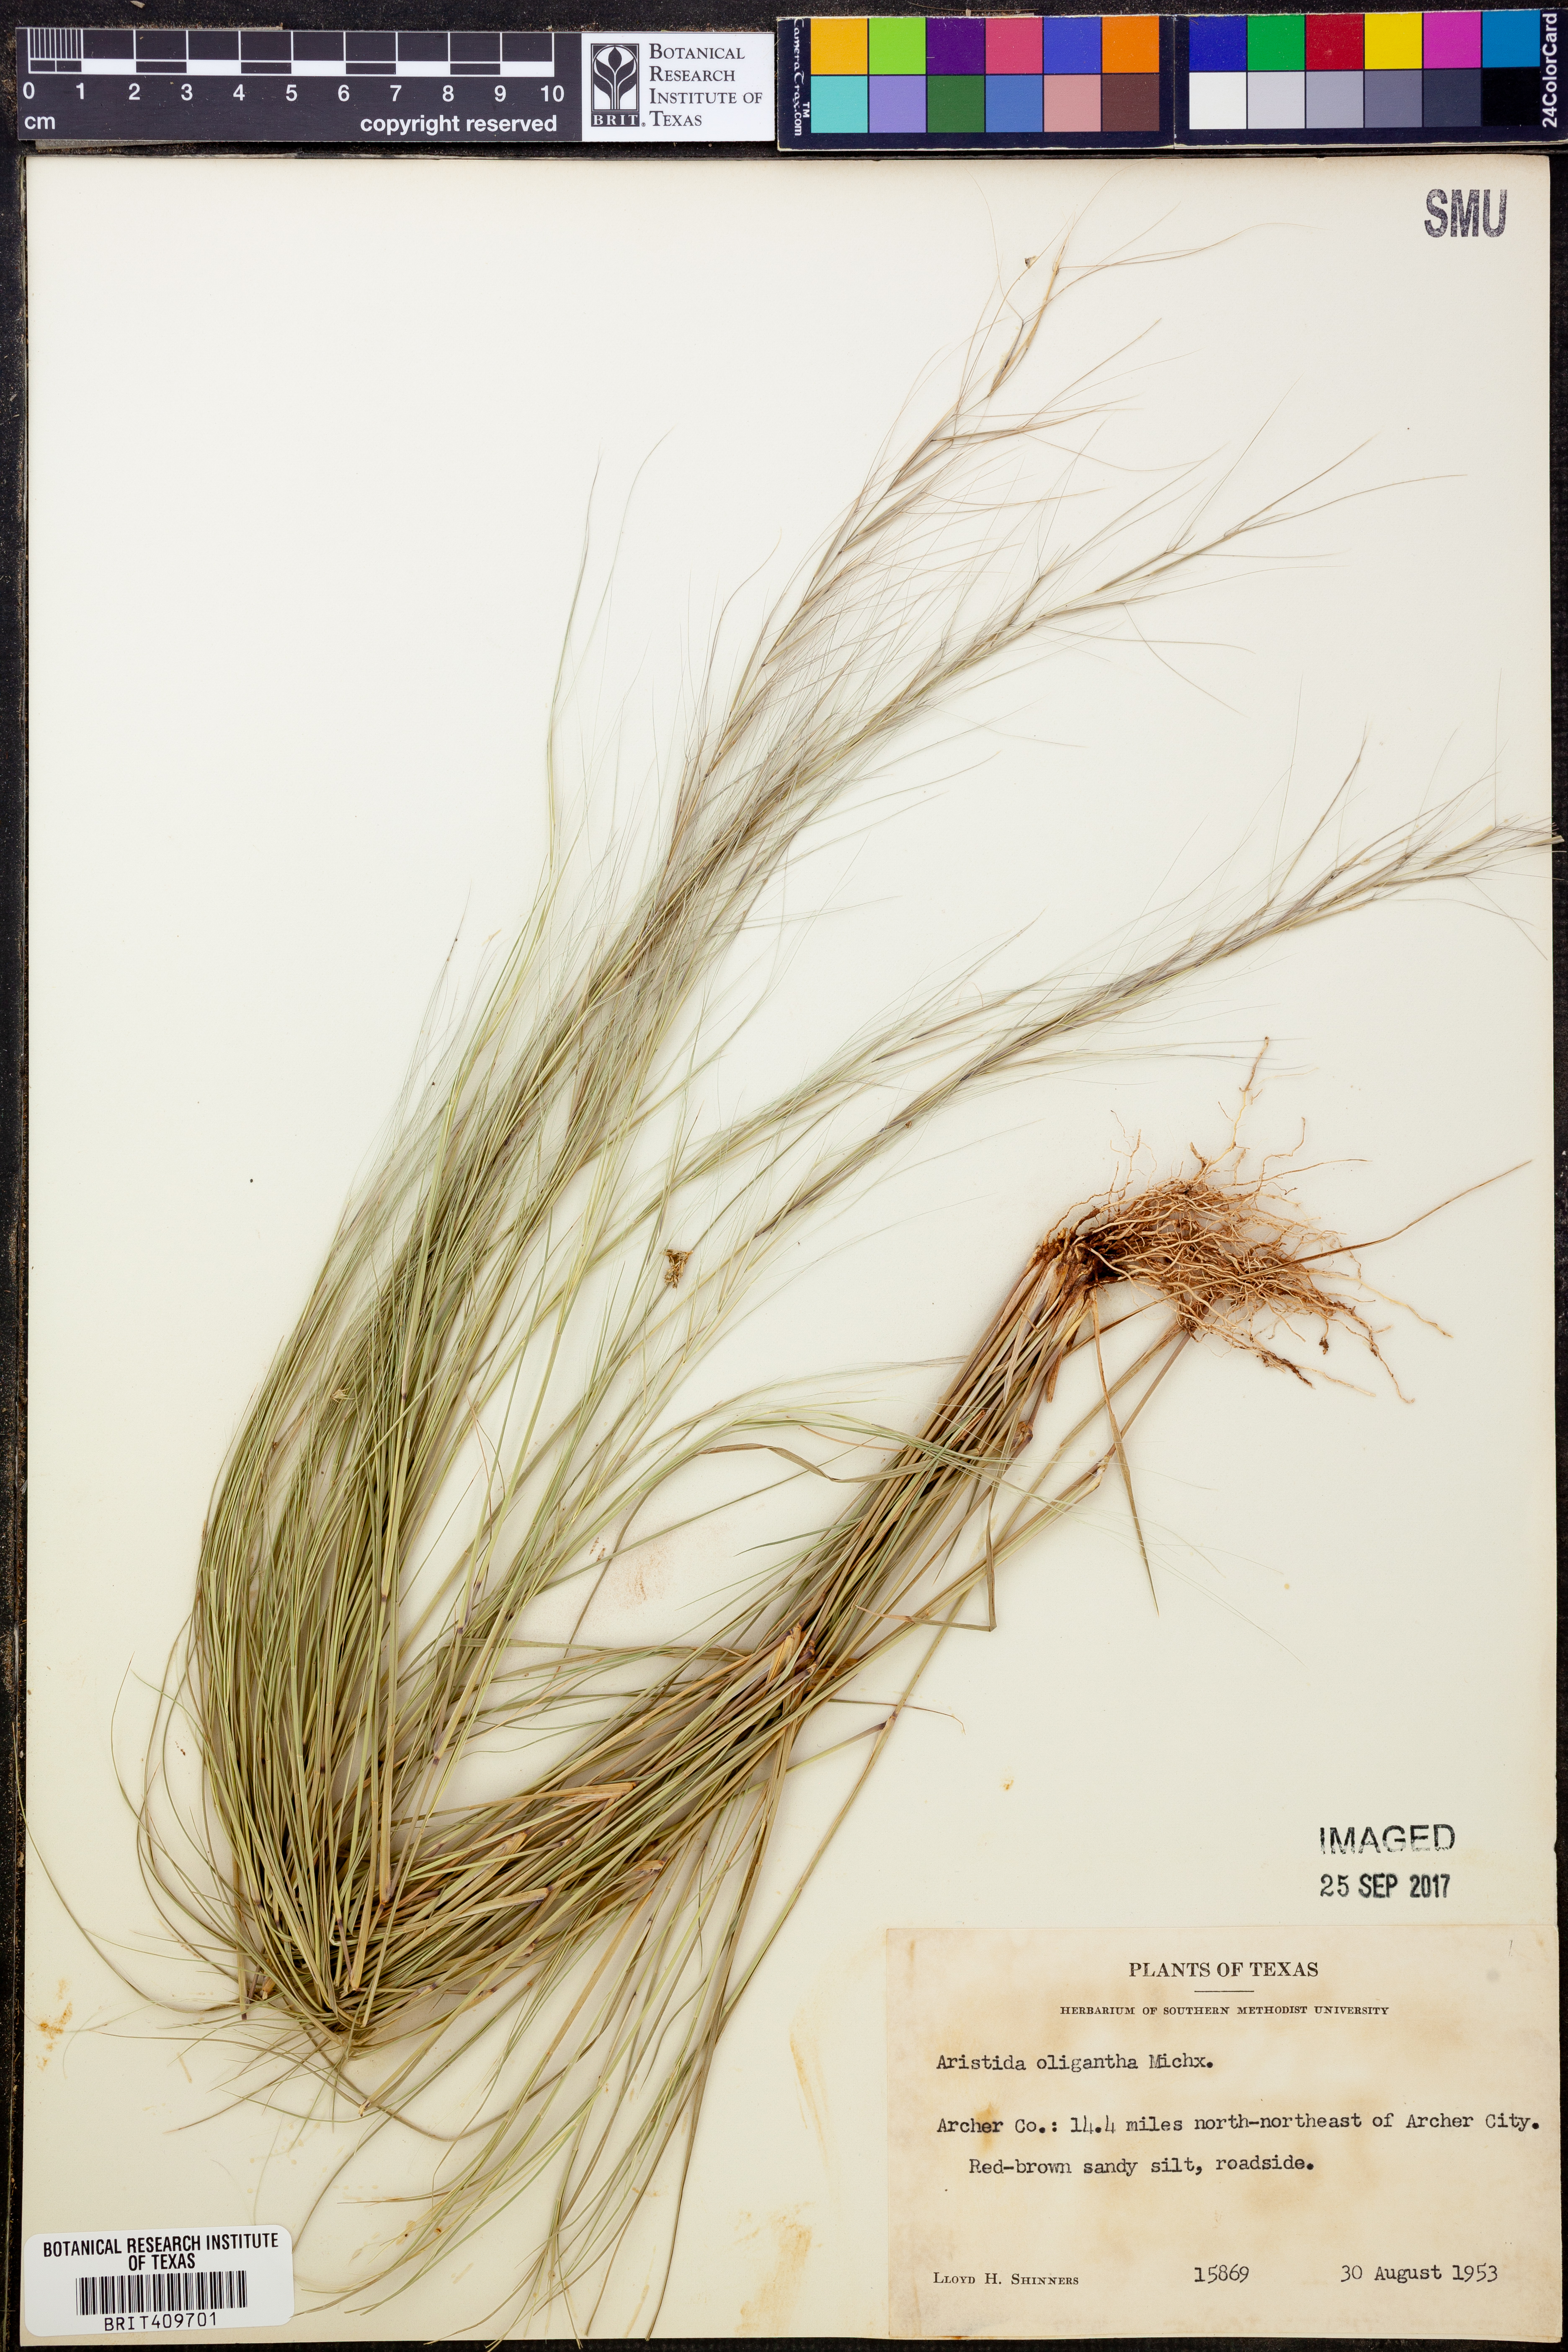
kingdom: Plantae
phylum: Tracheophyta
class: Liliopsida
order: Poales
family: Poaceae
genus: Aristida
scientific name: Aristida oligantha
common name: Few-flowered aristida
